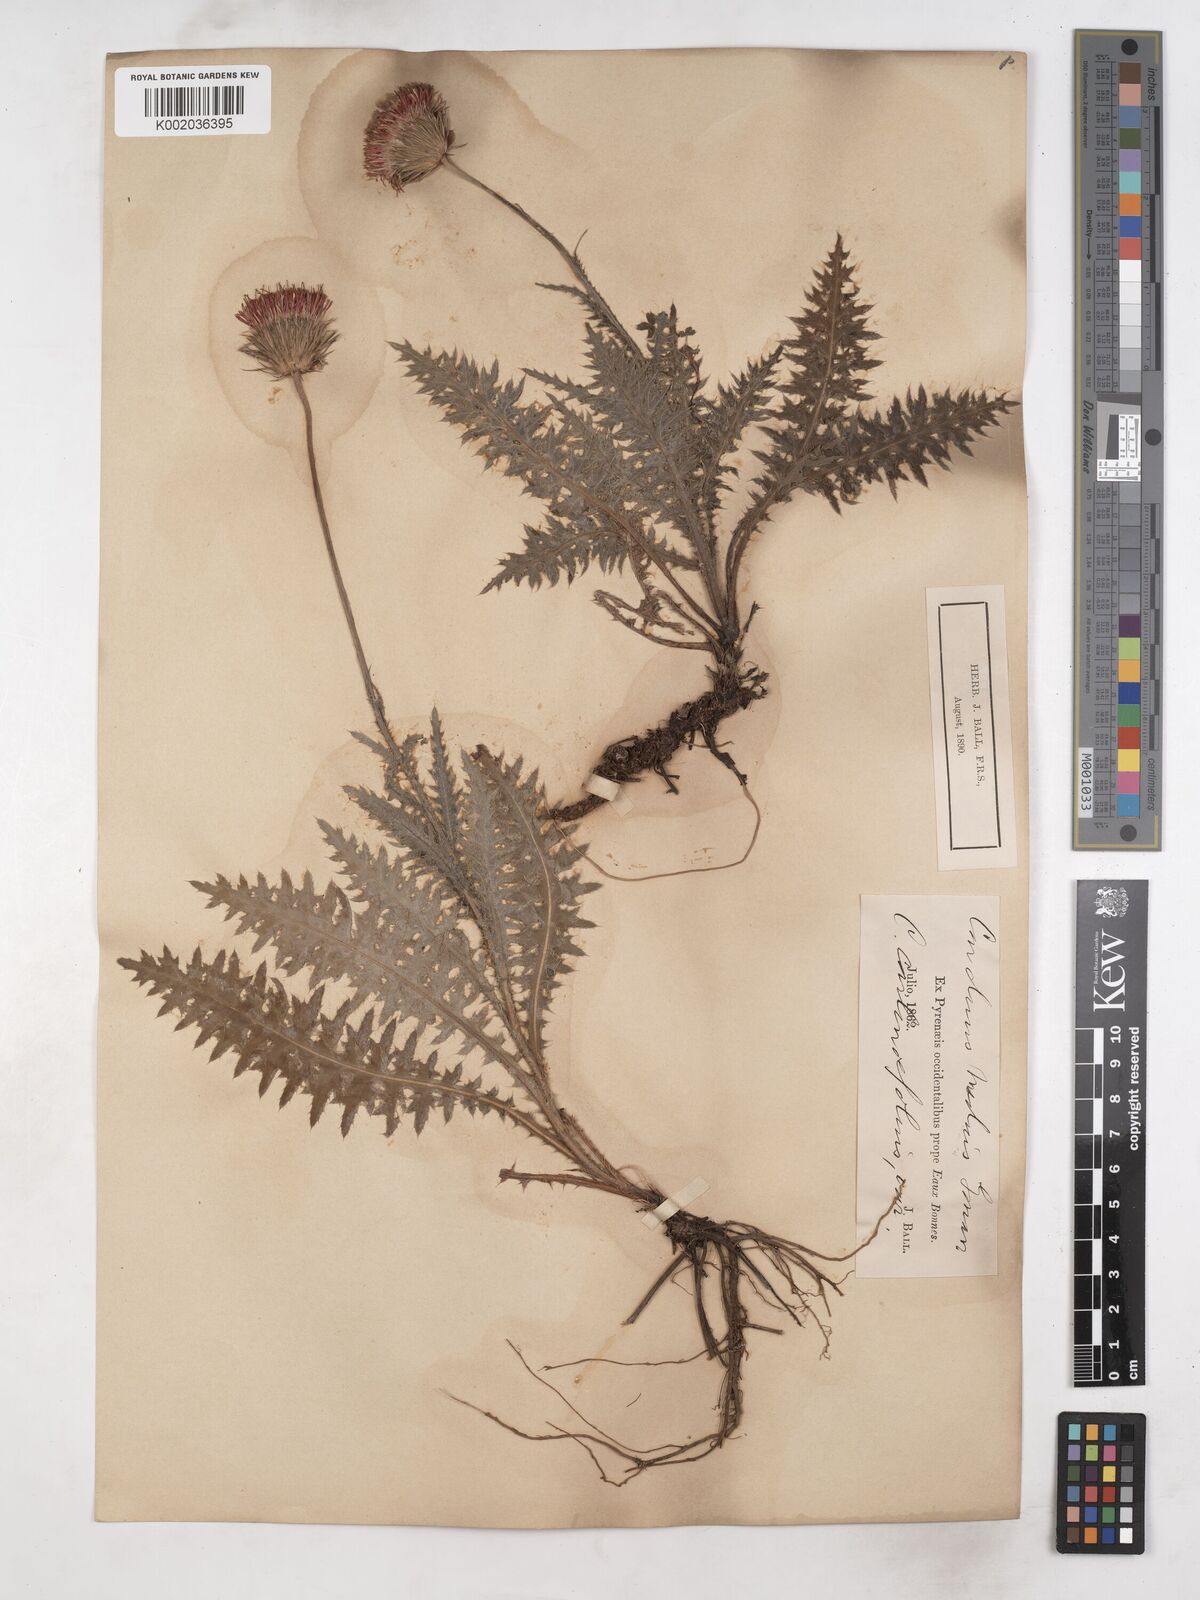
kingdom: Plantae
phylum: Tracheophyta
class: Magnoliopsida
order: Asterales
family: Asteraceae
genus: Carduus
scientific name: Carduus defloratus
